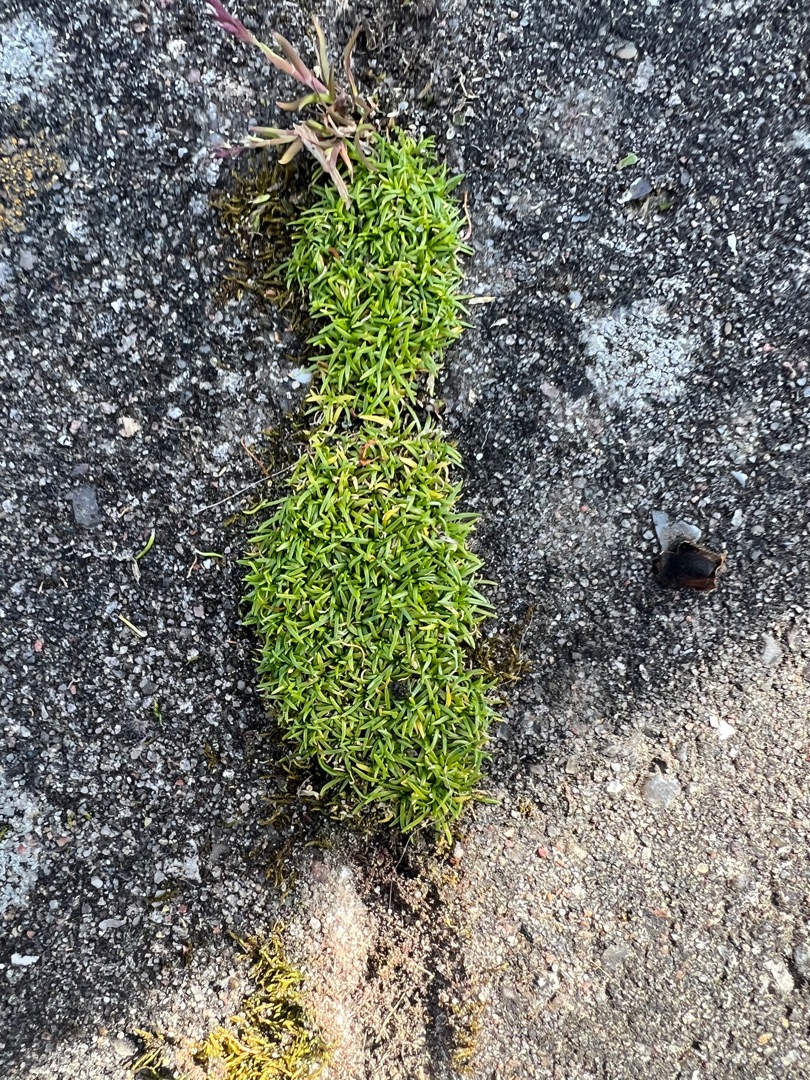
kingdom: Plantae
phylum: Tracheophyta
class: Magnoliopsida
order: Caryophyllales
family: Caryophyllaceae
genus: Sagina
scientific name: Sagina procumbens
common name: Almindelig firling
